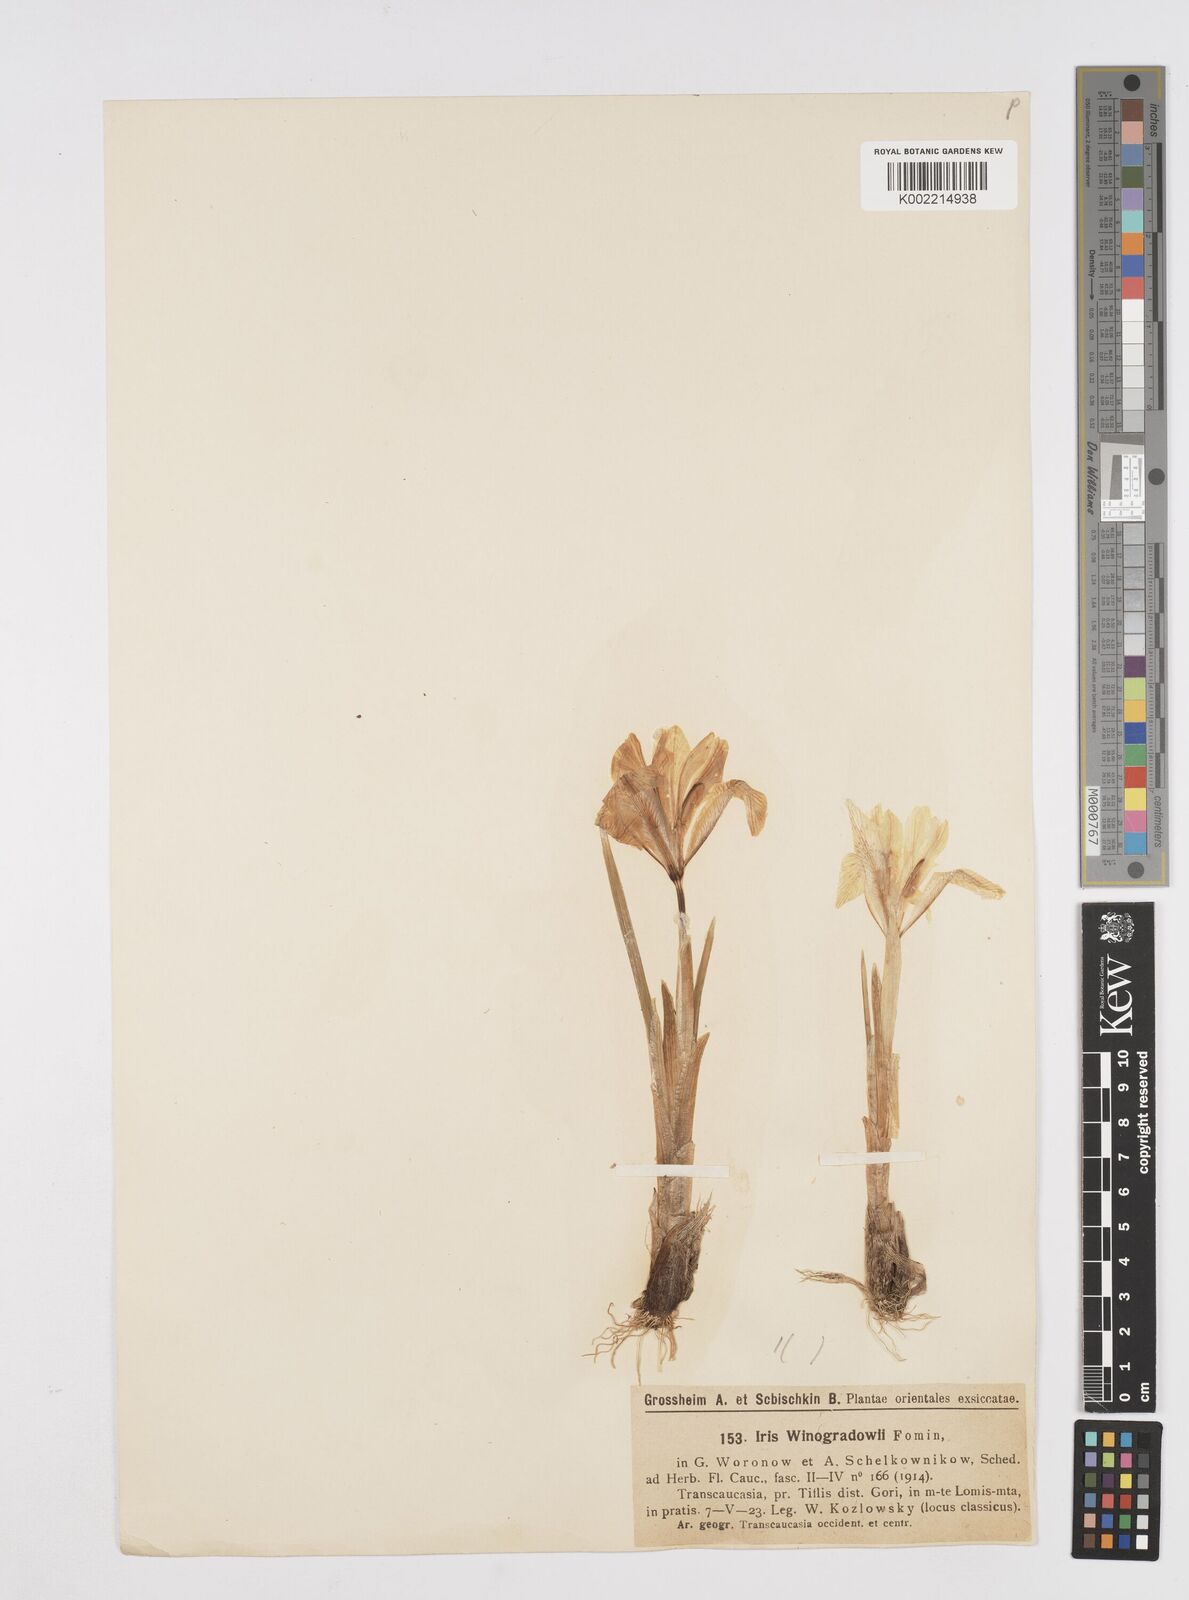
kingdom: Plantae
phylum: Tracheophyta
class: Liliopsida
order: Asparagales
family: Iridaceae
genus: Iris
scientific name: Iris winogradowii
